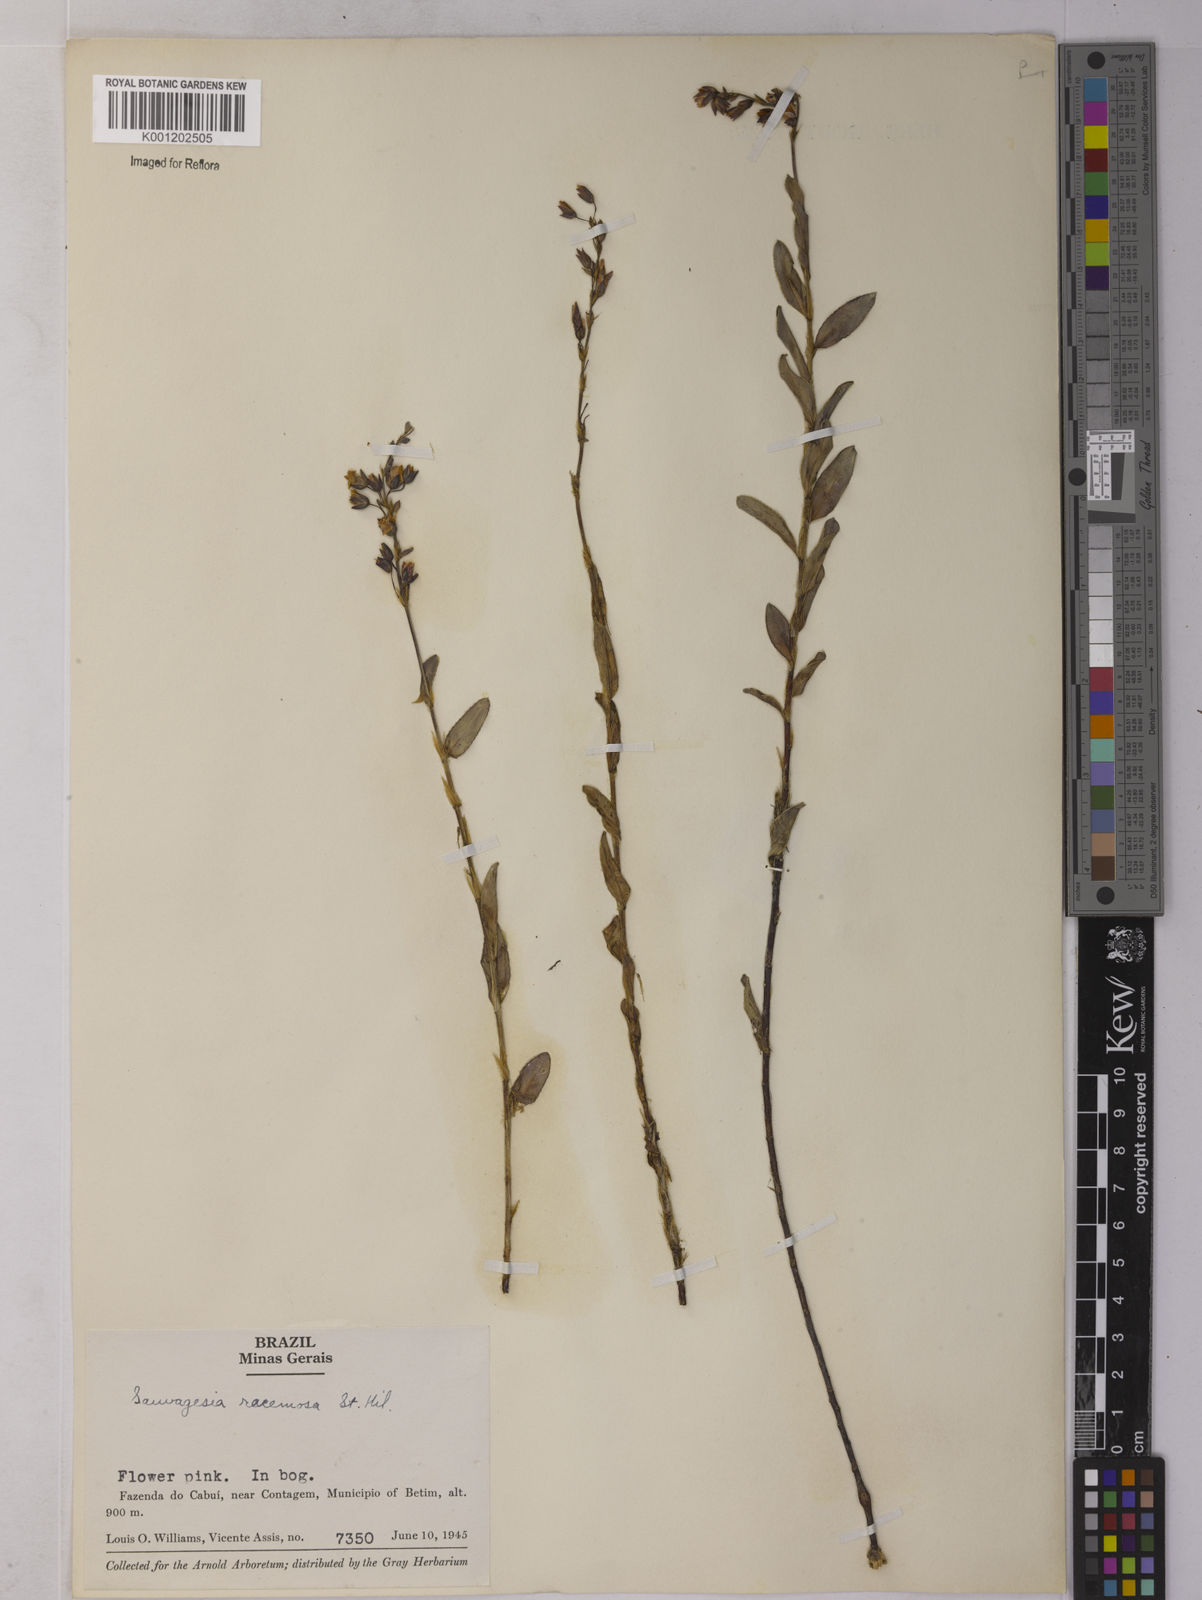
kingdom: Plantae
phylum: Tracheophyta
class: Magnoliopsida
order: Malpighiales
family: Ochnaceae
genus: Sauvagesia
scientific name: Sauvagesia racemosa
